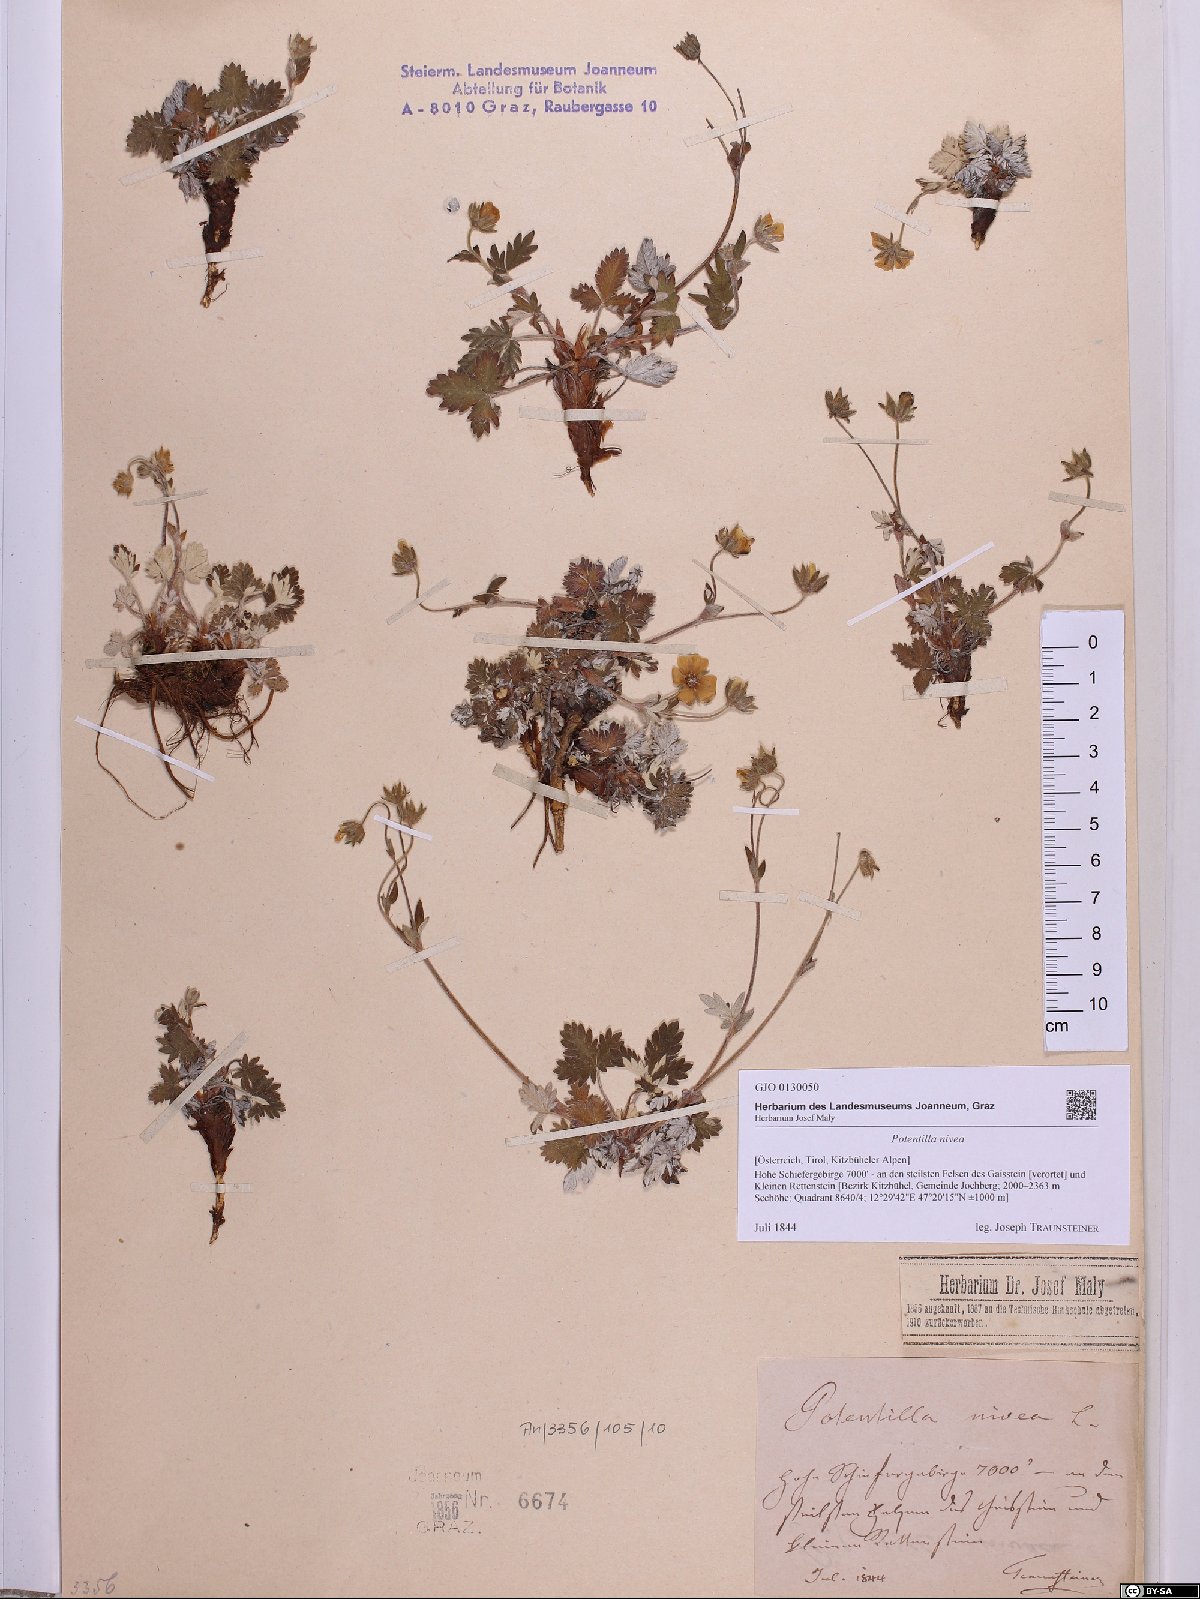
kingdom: Plantae
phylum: Tracheophyta
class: Magnoliopsida
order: Rosales
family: Rosaceae
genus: Potentilla
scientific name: Potentilla nivea
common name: Snow cinquefoil
